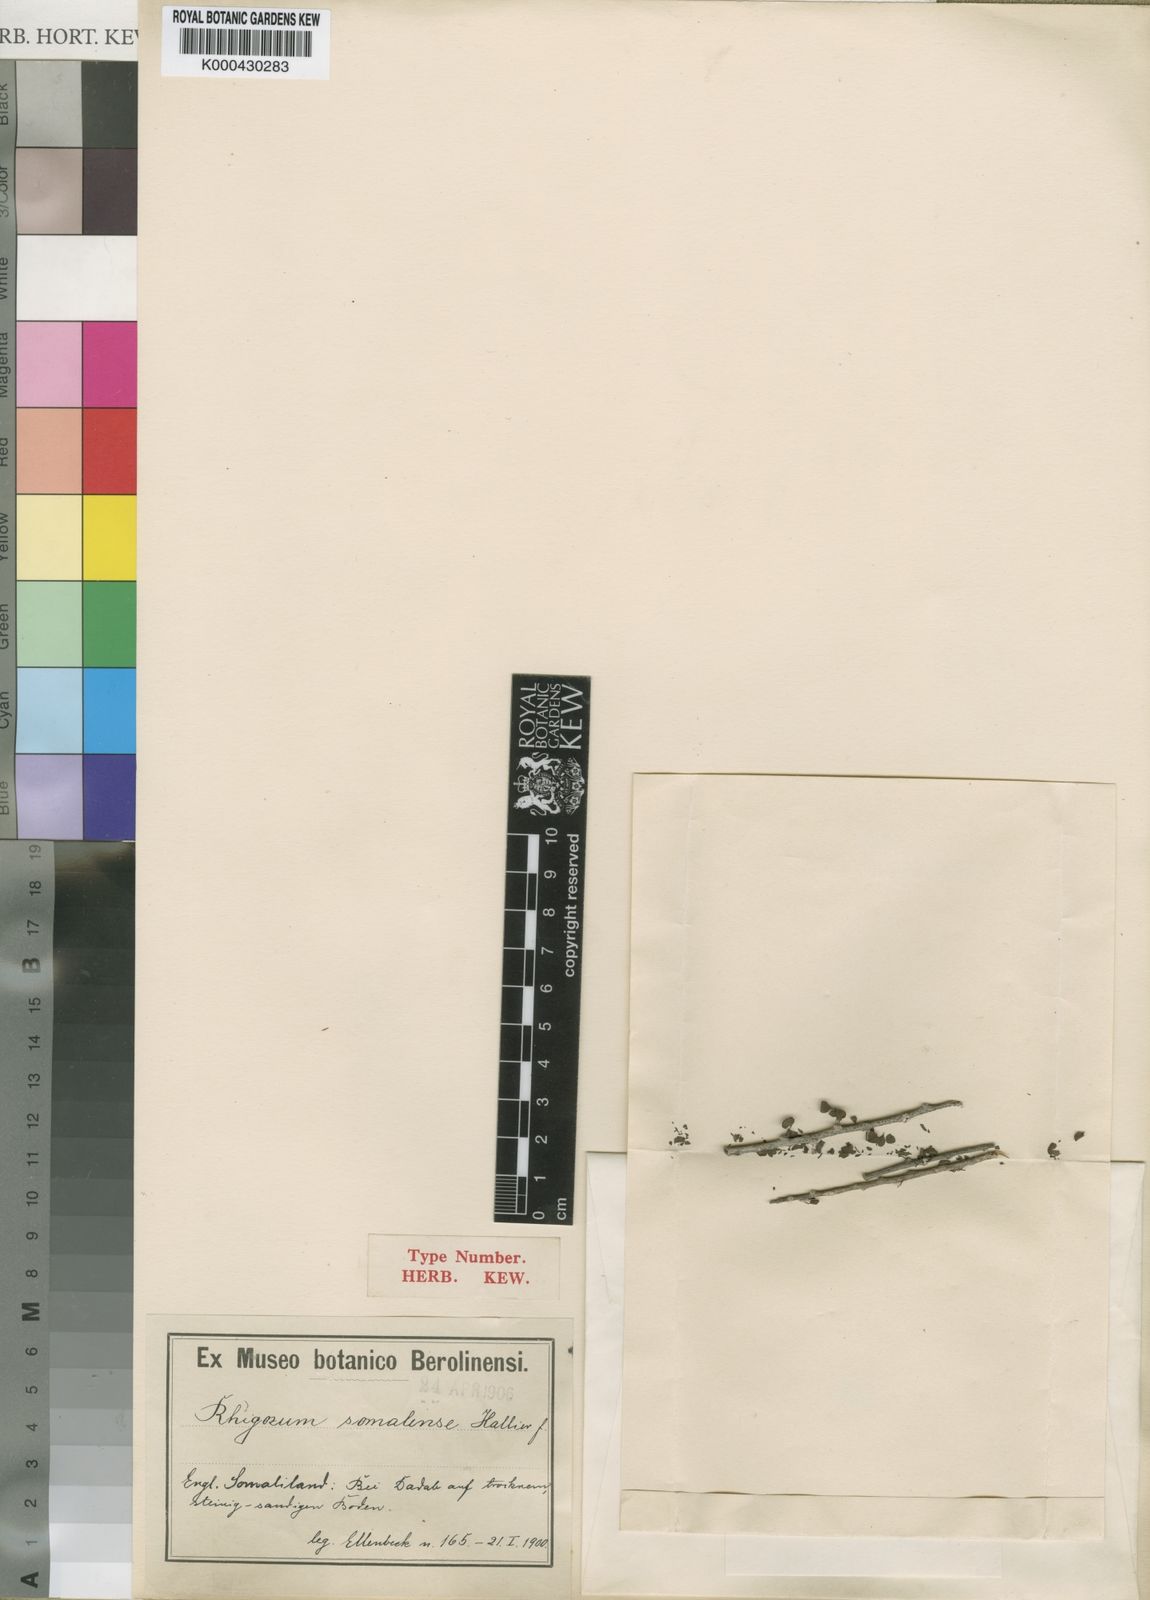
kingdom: Plantae
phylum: Tracheophyta
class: Magnoliopsida
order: Lamiales
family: Bignoniaceae
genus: Rhigozum
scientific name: Rhigozum somalense
